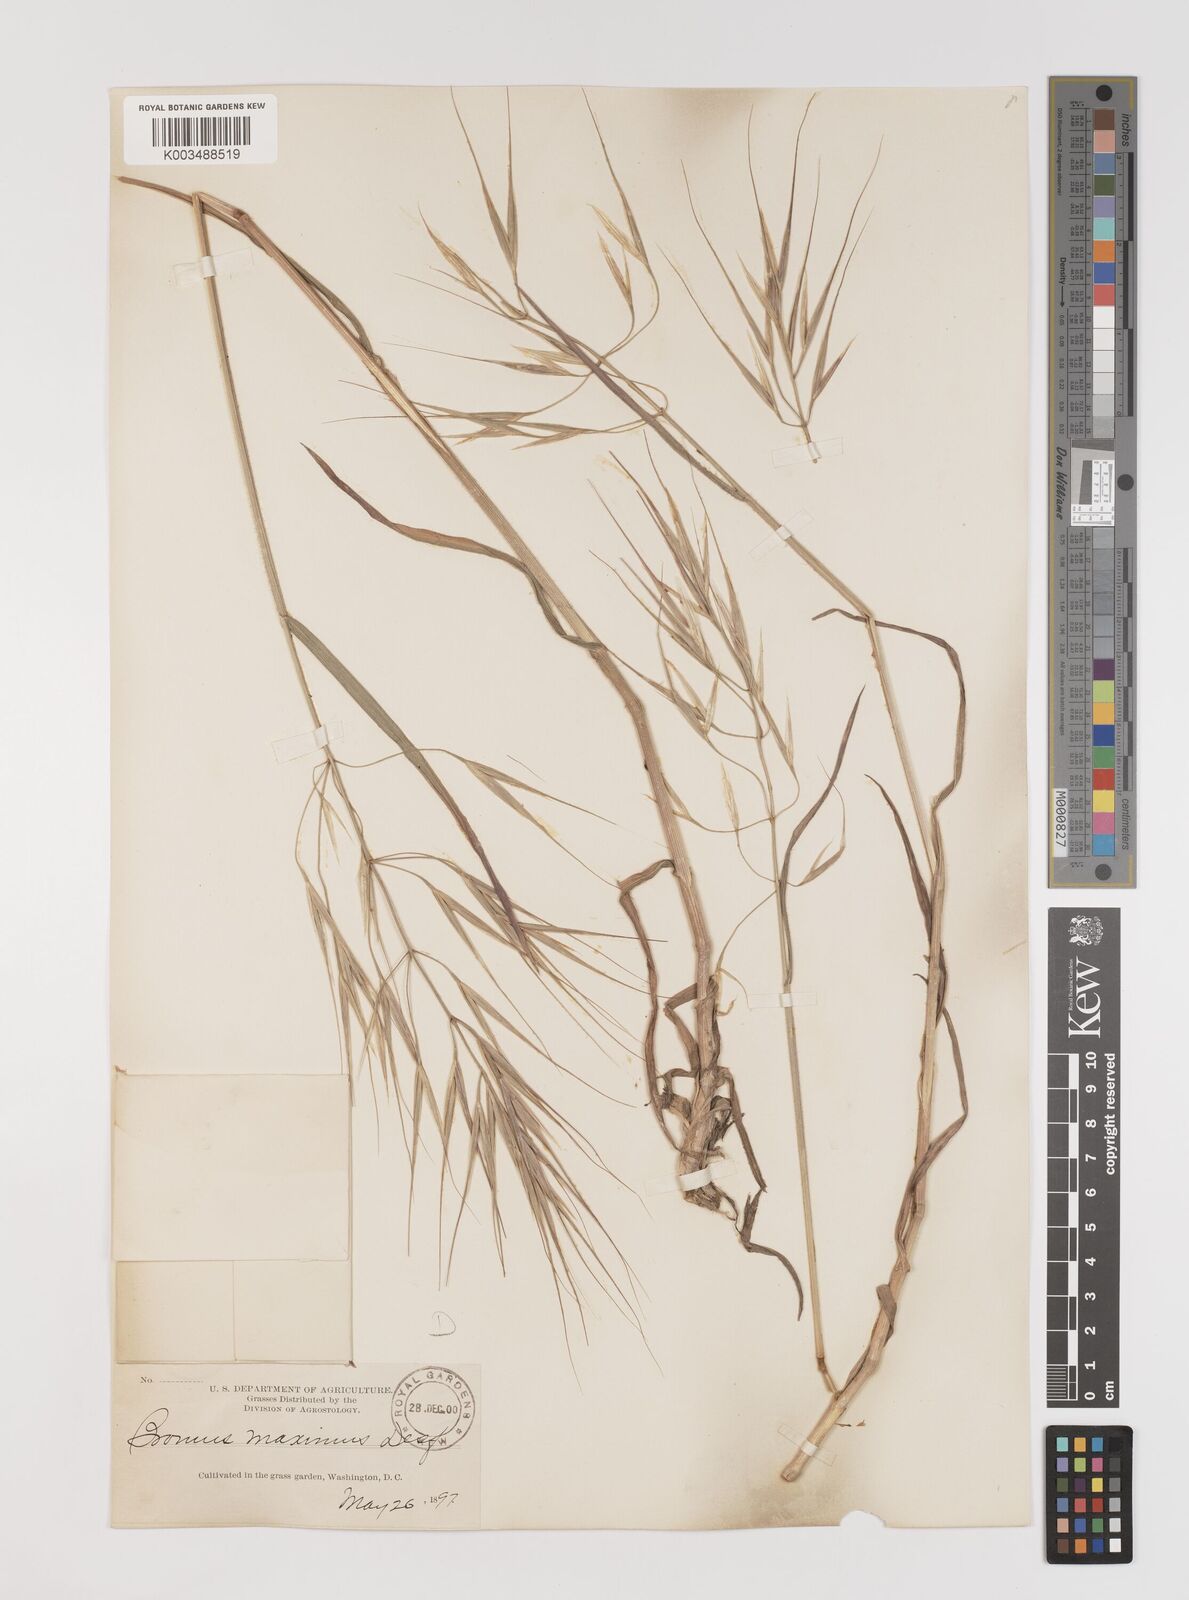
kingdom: Plantae
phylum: Tracheophyta
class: Liliopsida
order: Poales
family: Poaceae
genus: Bromus
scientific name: Bromus diandrus
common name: Ripgut brome
